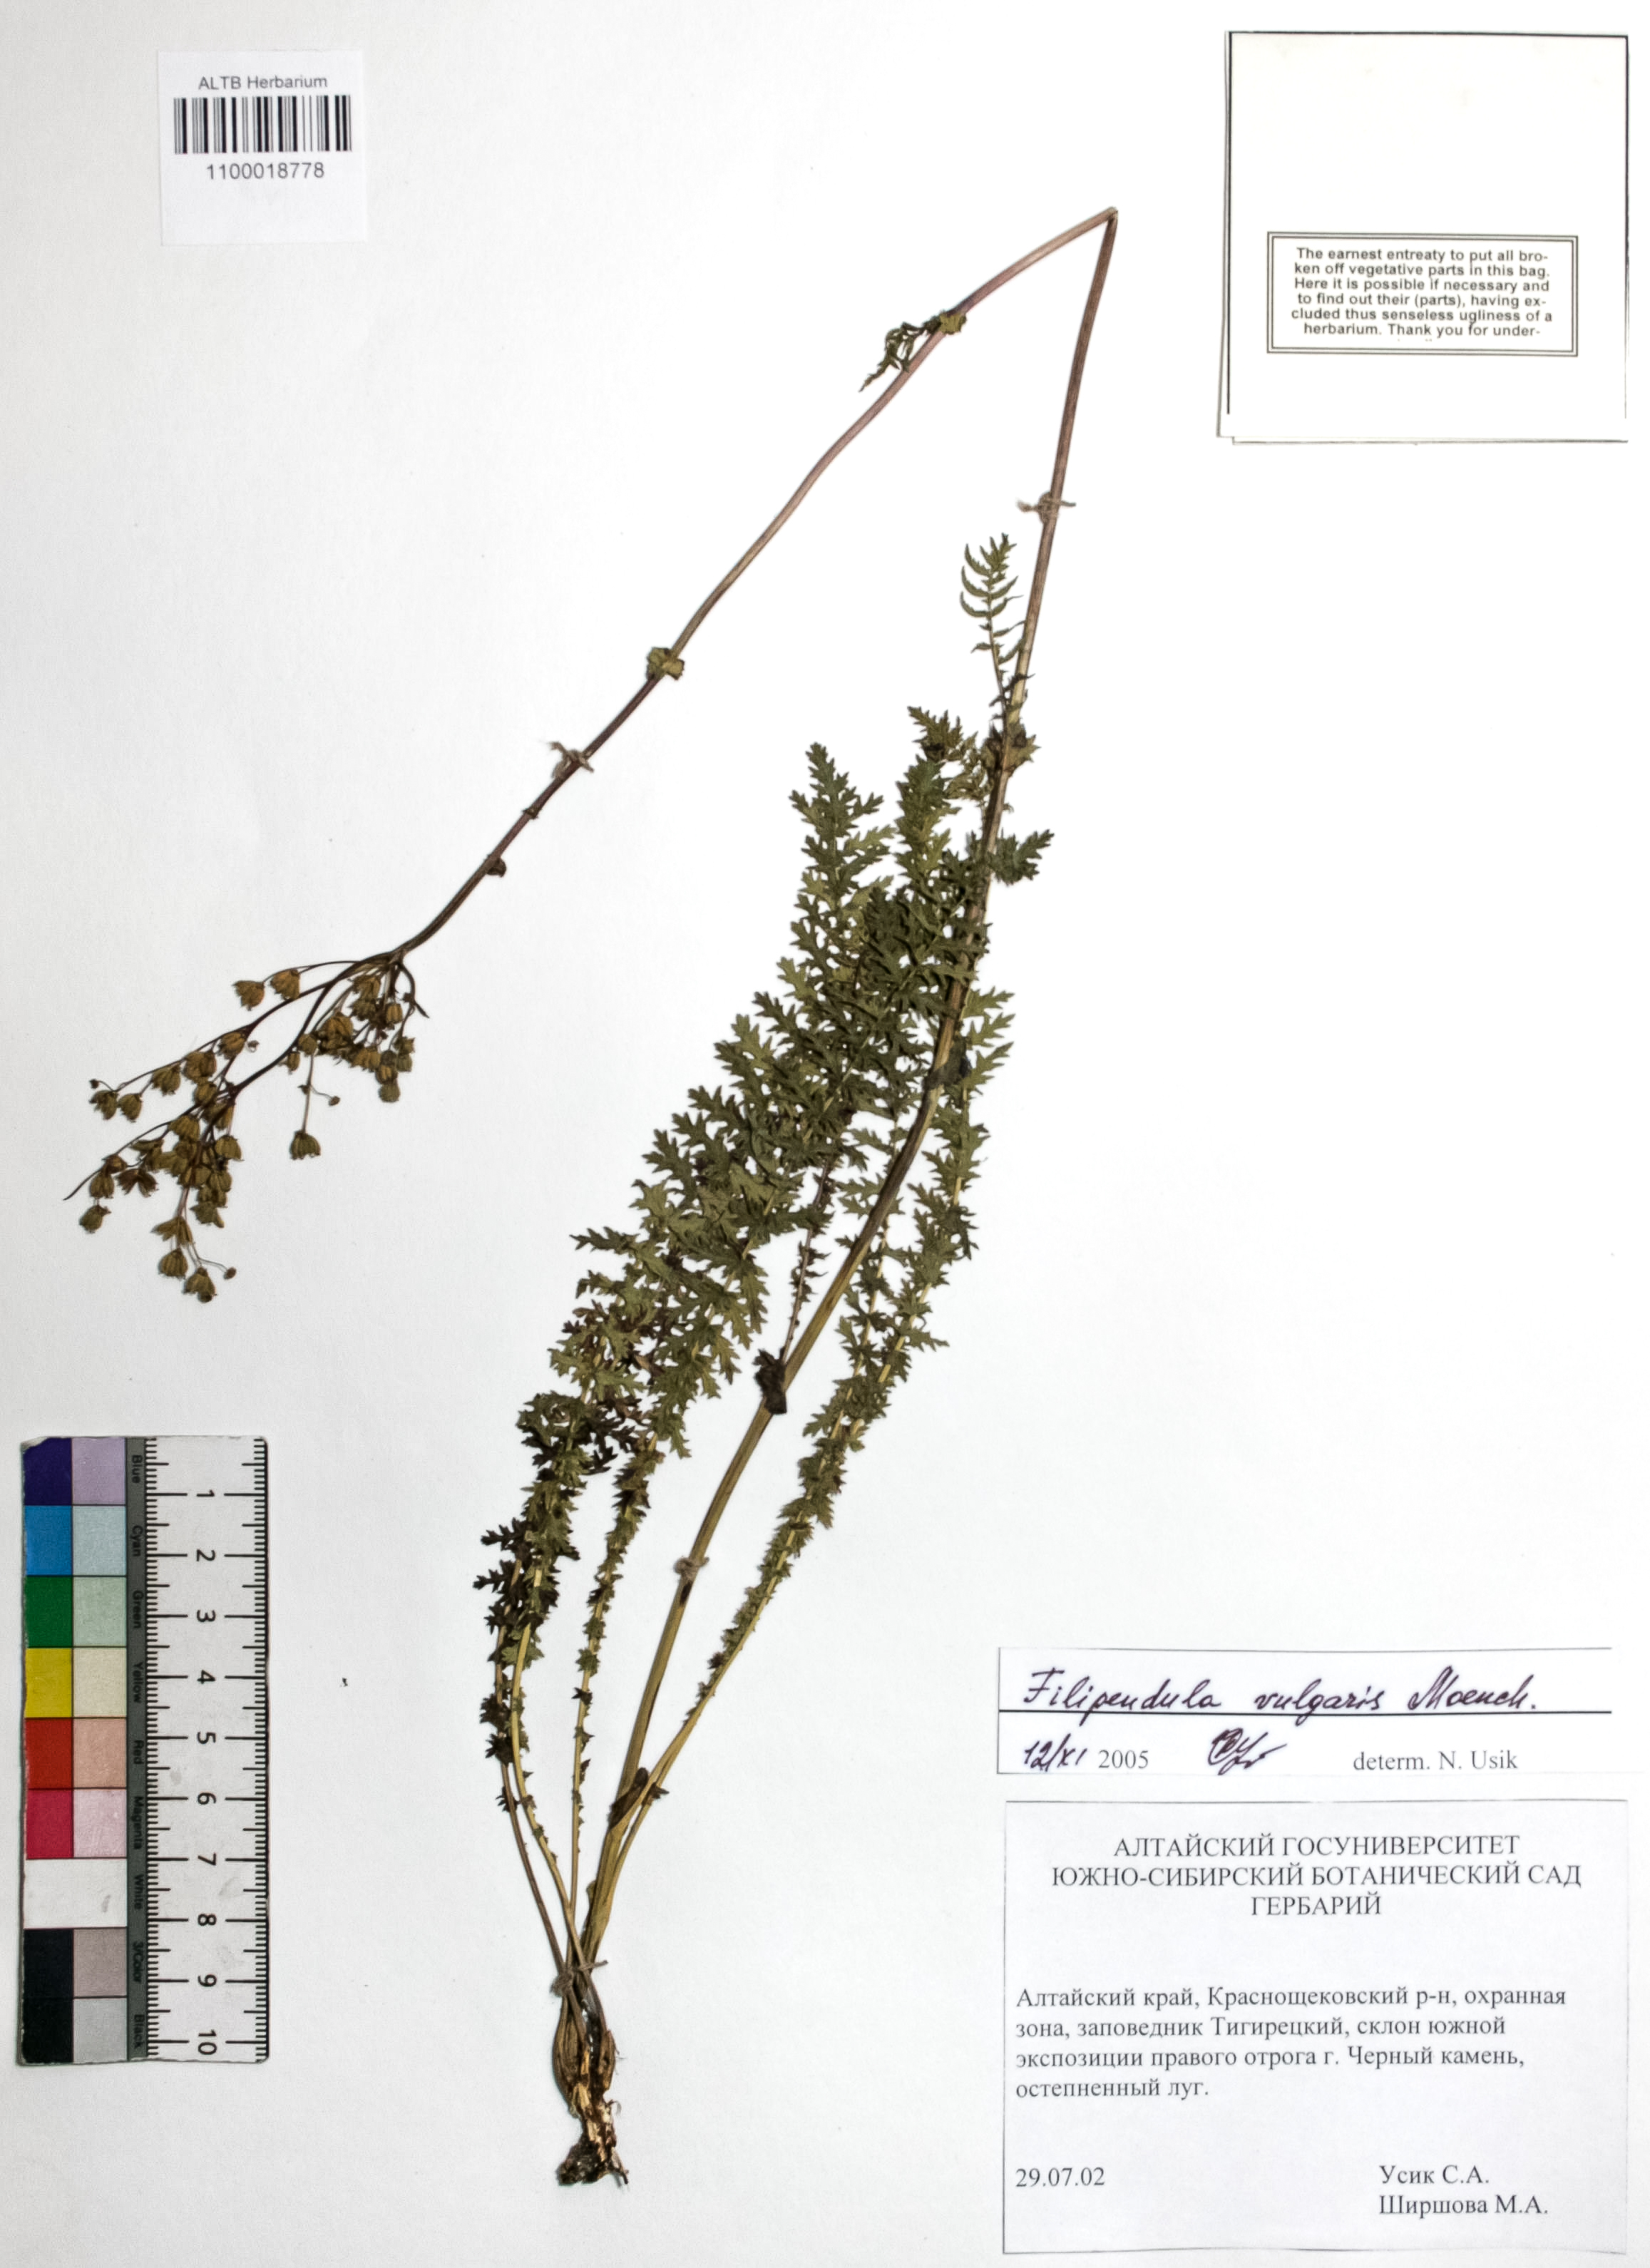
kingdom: Plantae
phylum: Tracheophyta
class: Magnoliopsida
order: Rosales
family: Rosaceae
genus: Filipendula
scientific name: Filipendula vulgaris
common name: Dropwort
